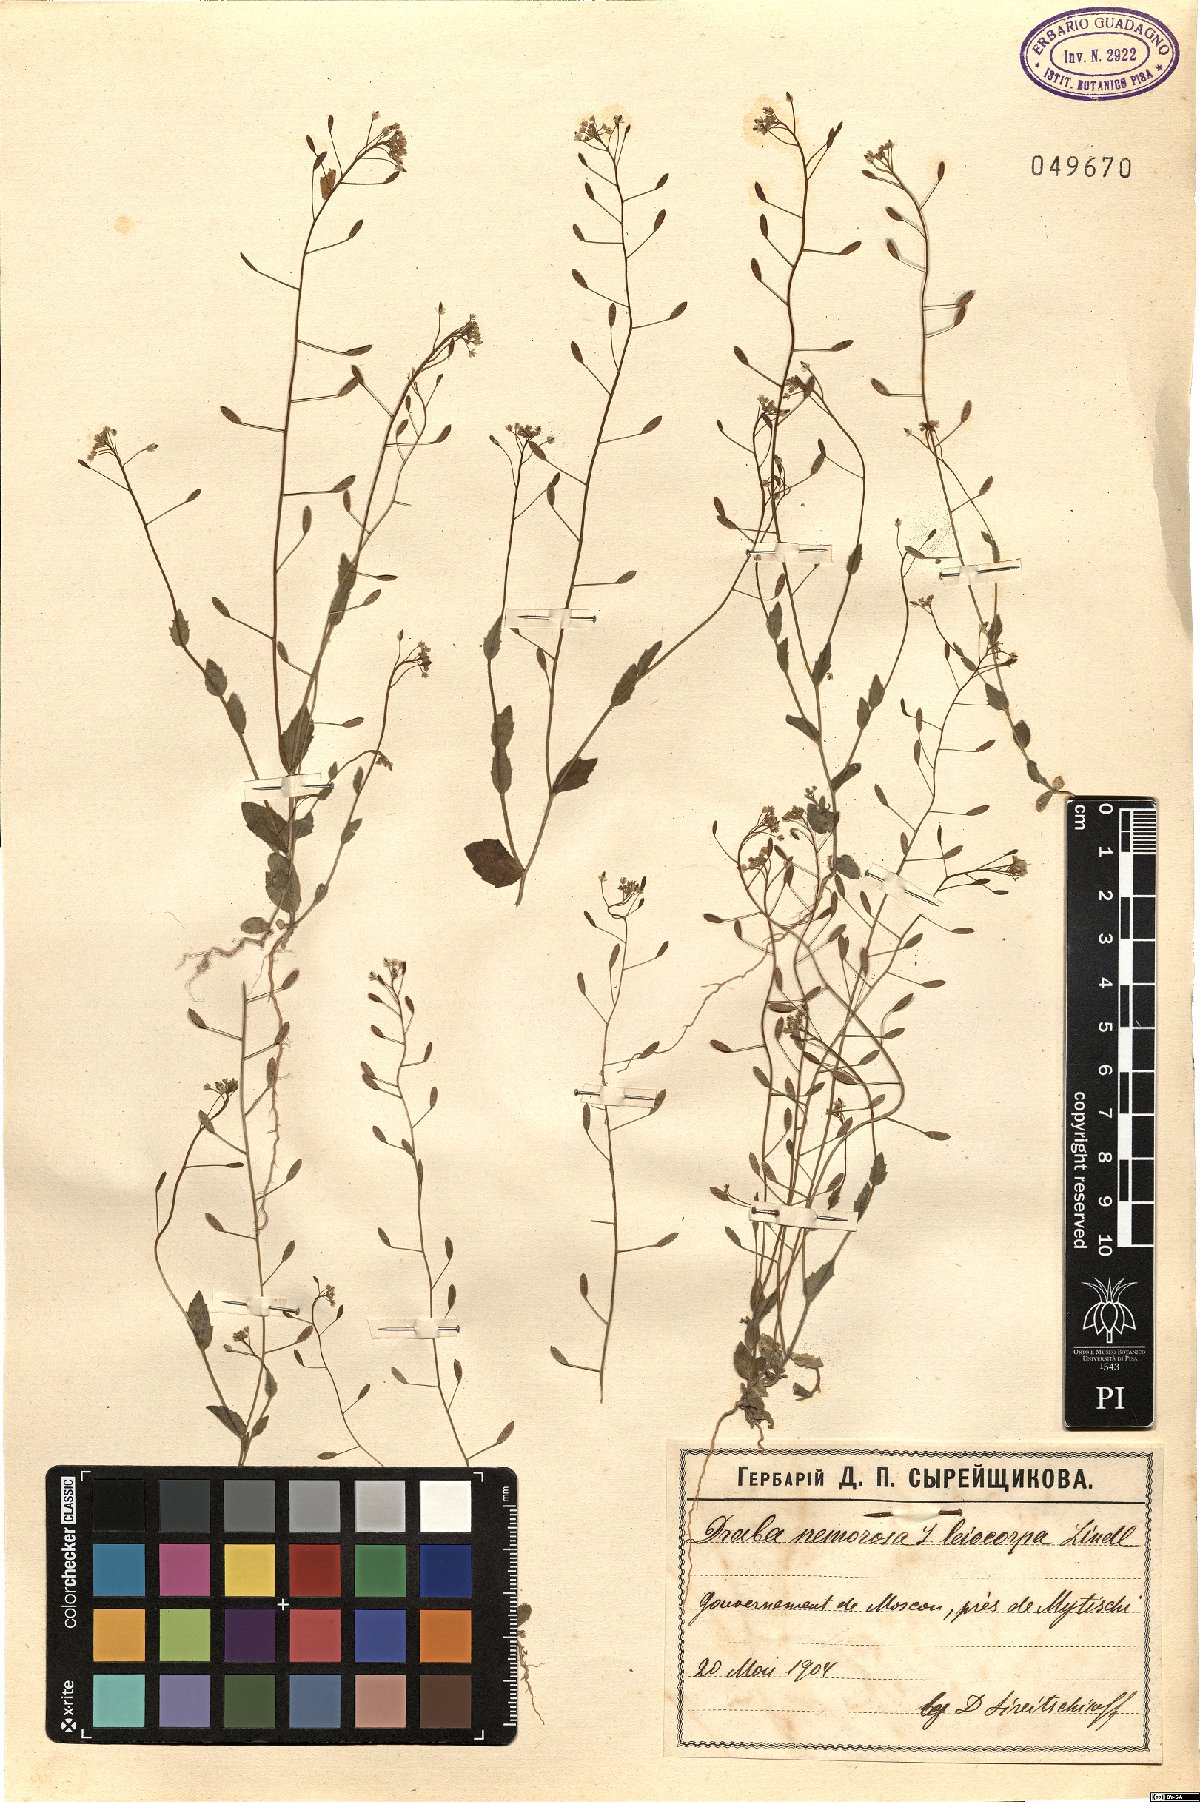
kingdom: Plantae
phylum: Tracheophyta
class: Magnoliopsida
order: Brassicales
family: Brassicaceae
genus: Draba
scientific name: Draba nemorosa
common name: Wood whitlow-grass
